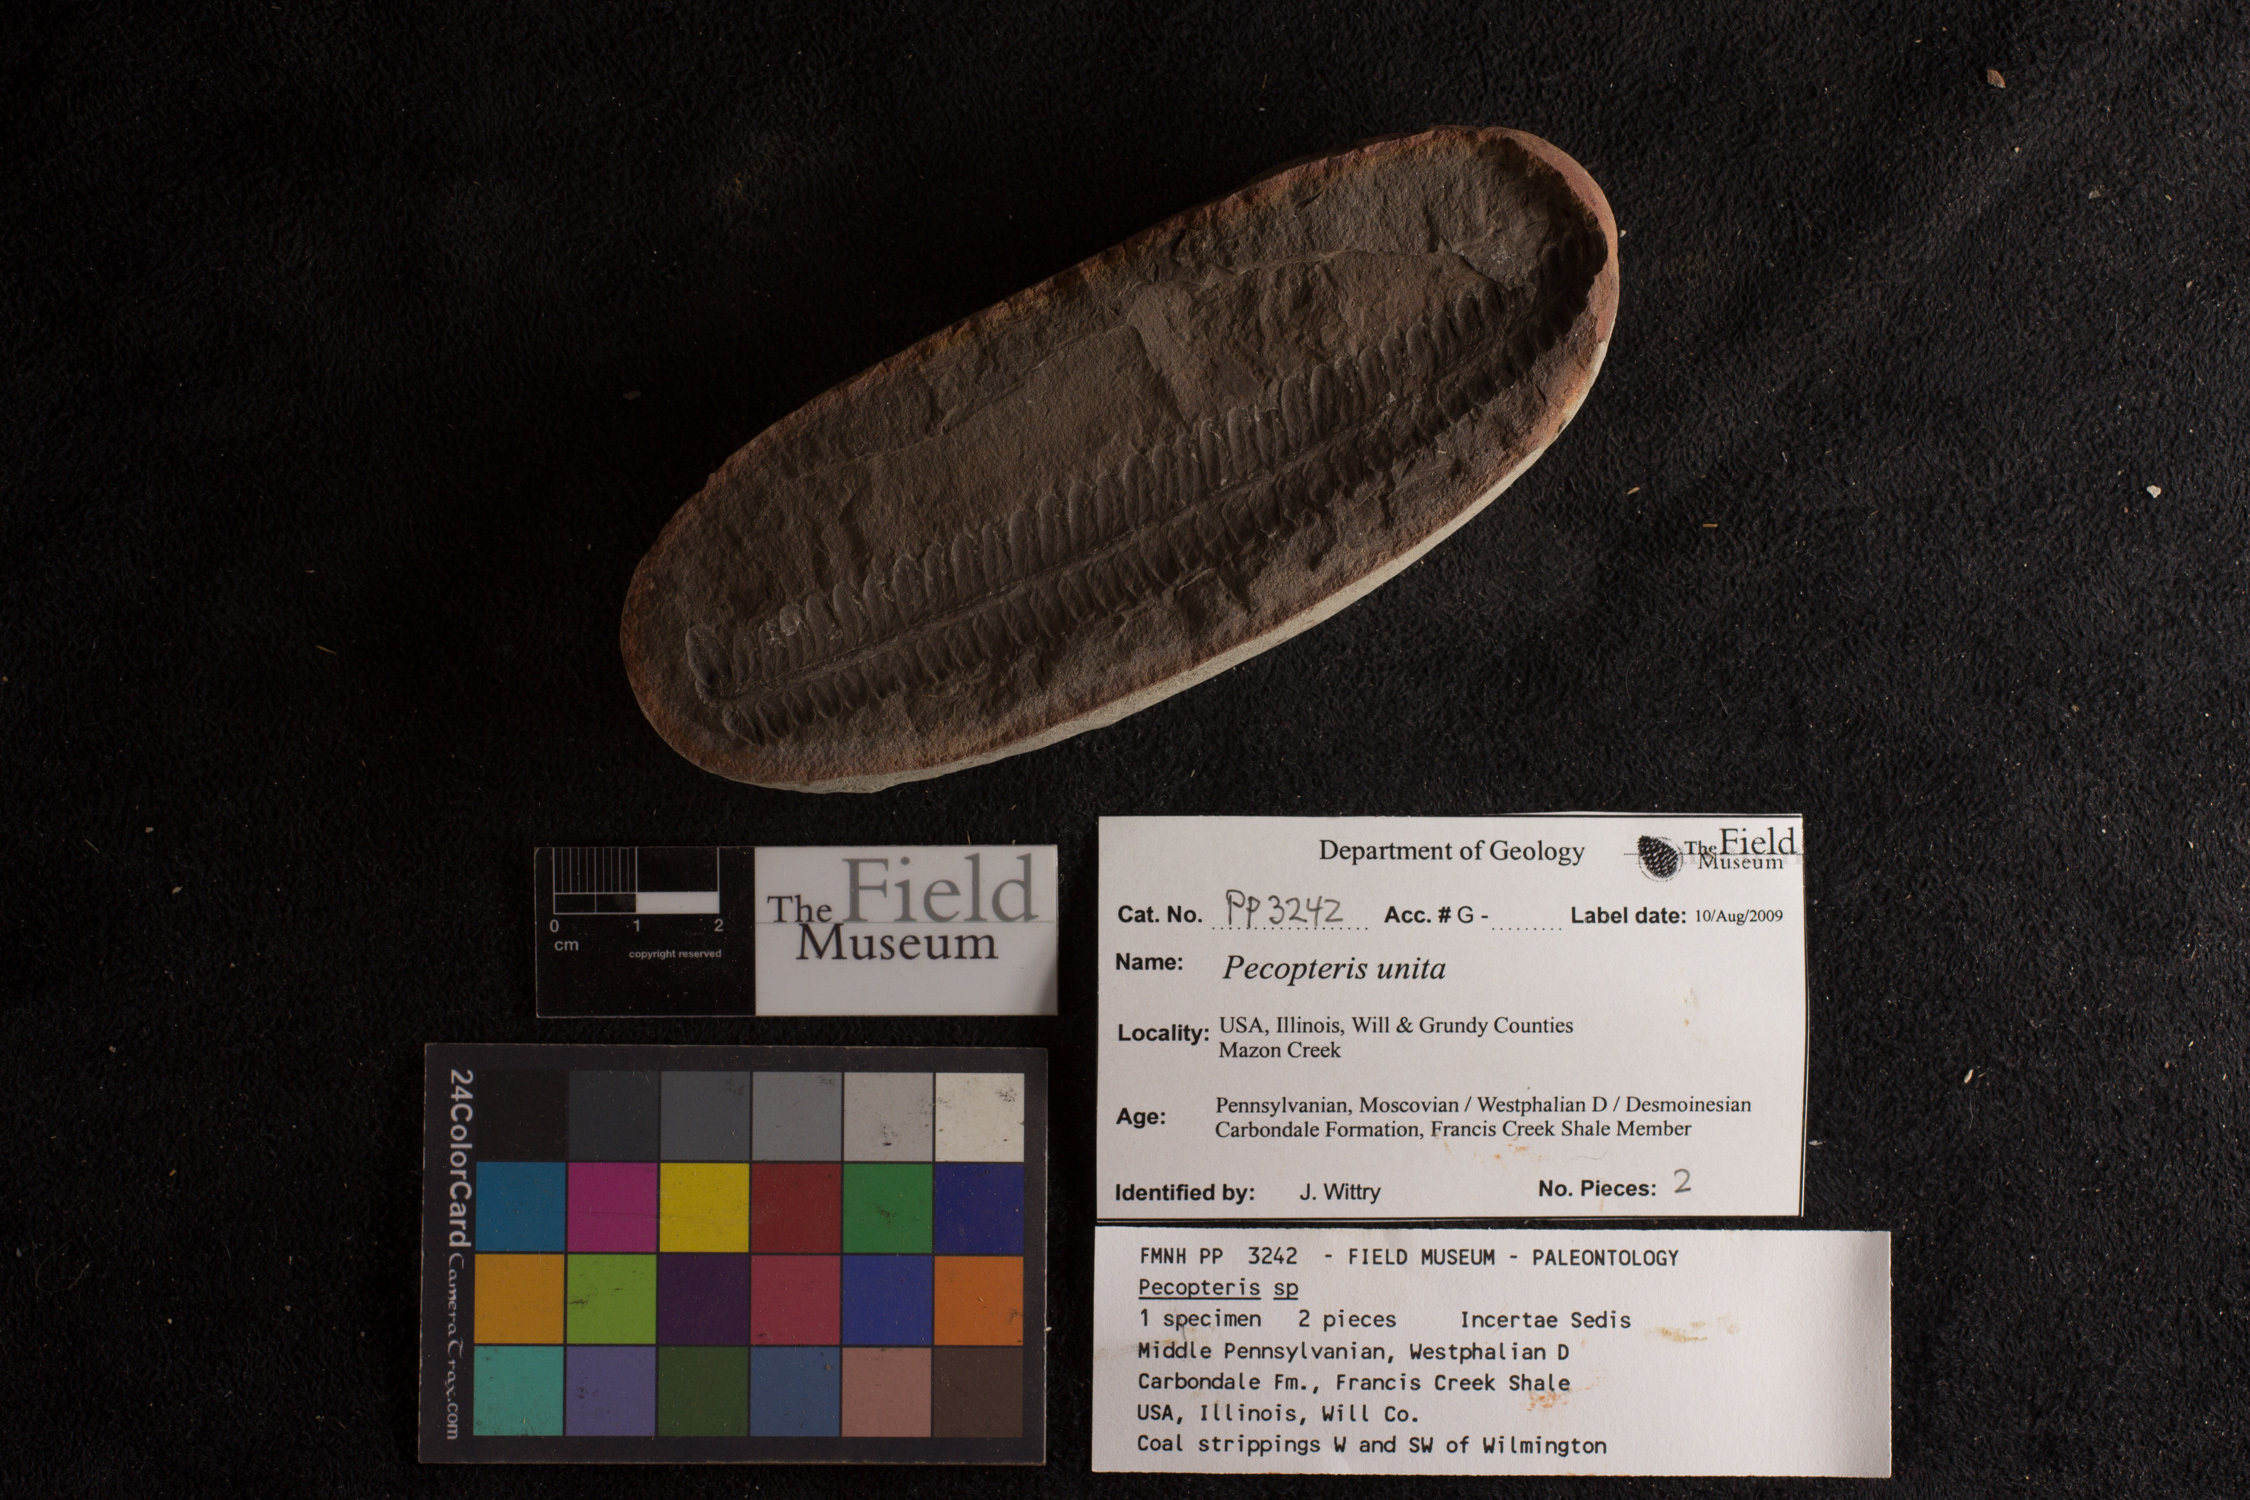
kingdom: Plantae
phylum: Tracheophyta
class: Polypodiopsida
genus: Diplazites
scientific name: Diplazites
